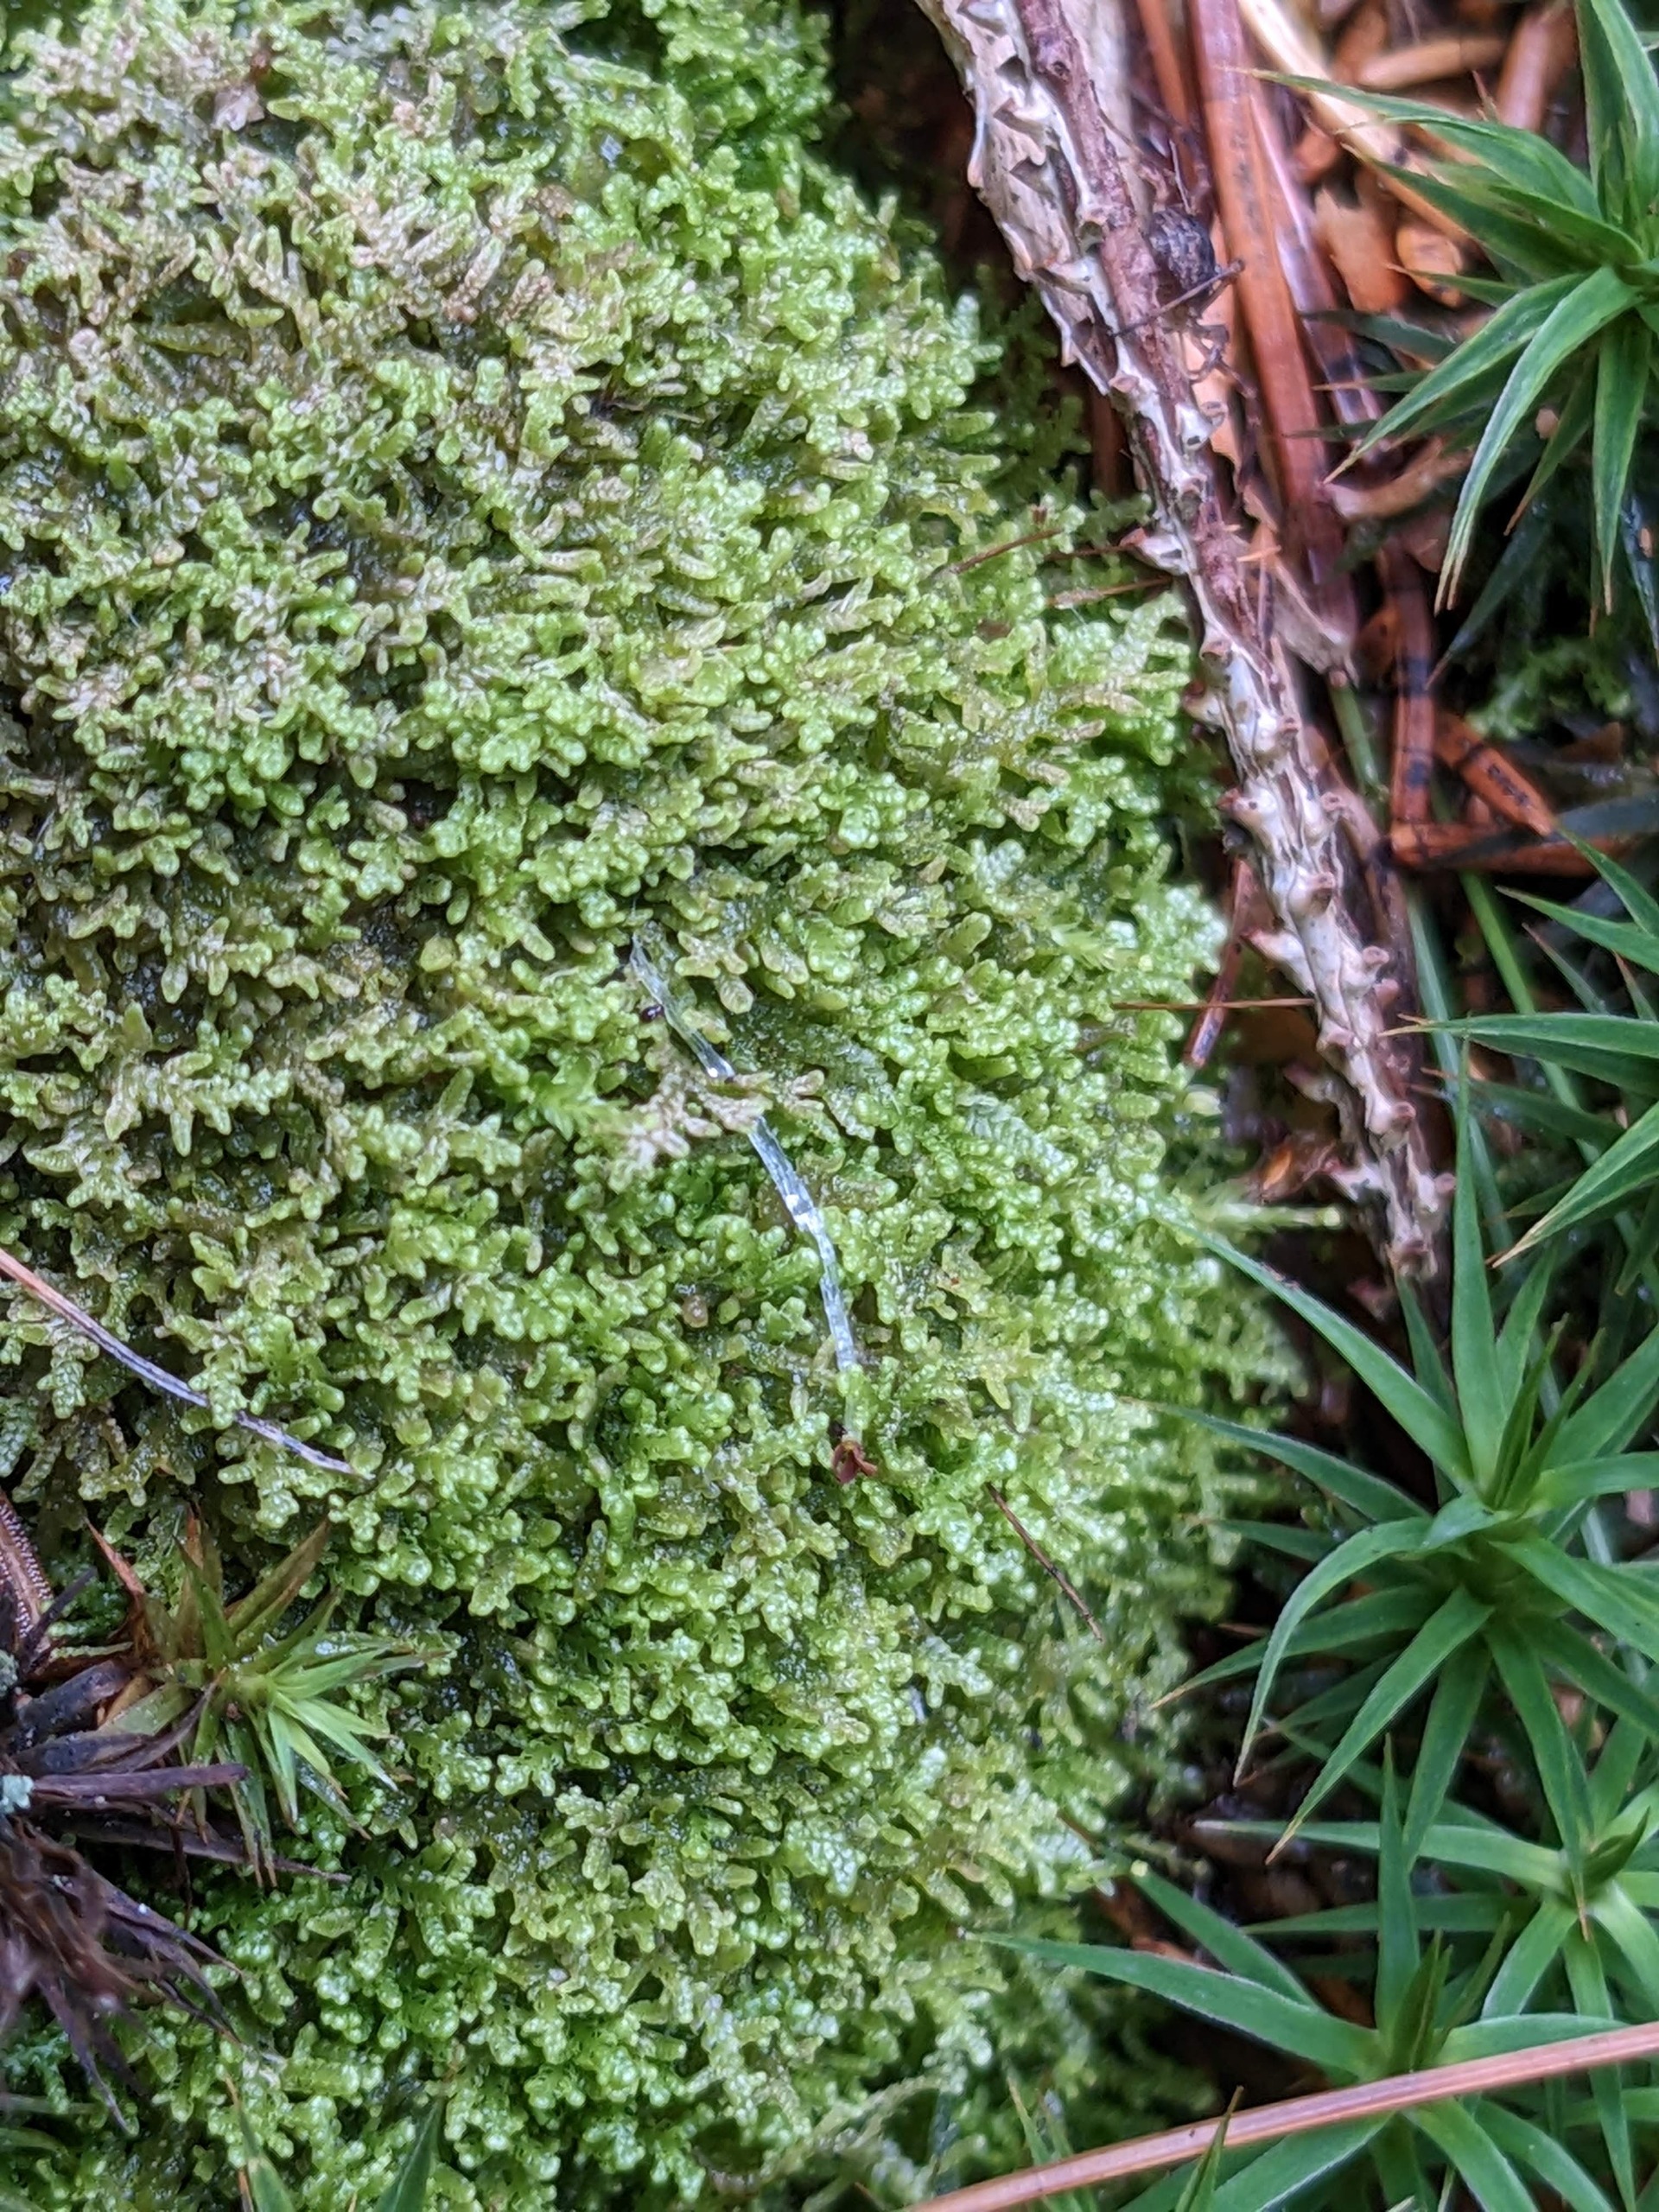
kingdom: Plantae
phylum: Marchantiophyta
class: Jungermanniopsida
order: Jungermanniales
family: Lepidoziaceae
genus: Lepidozia
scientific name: Lepidozia reptans
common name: Krybende fingermos
